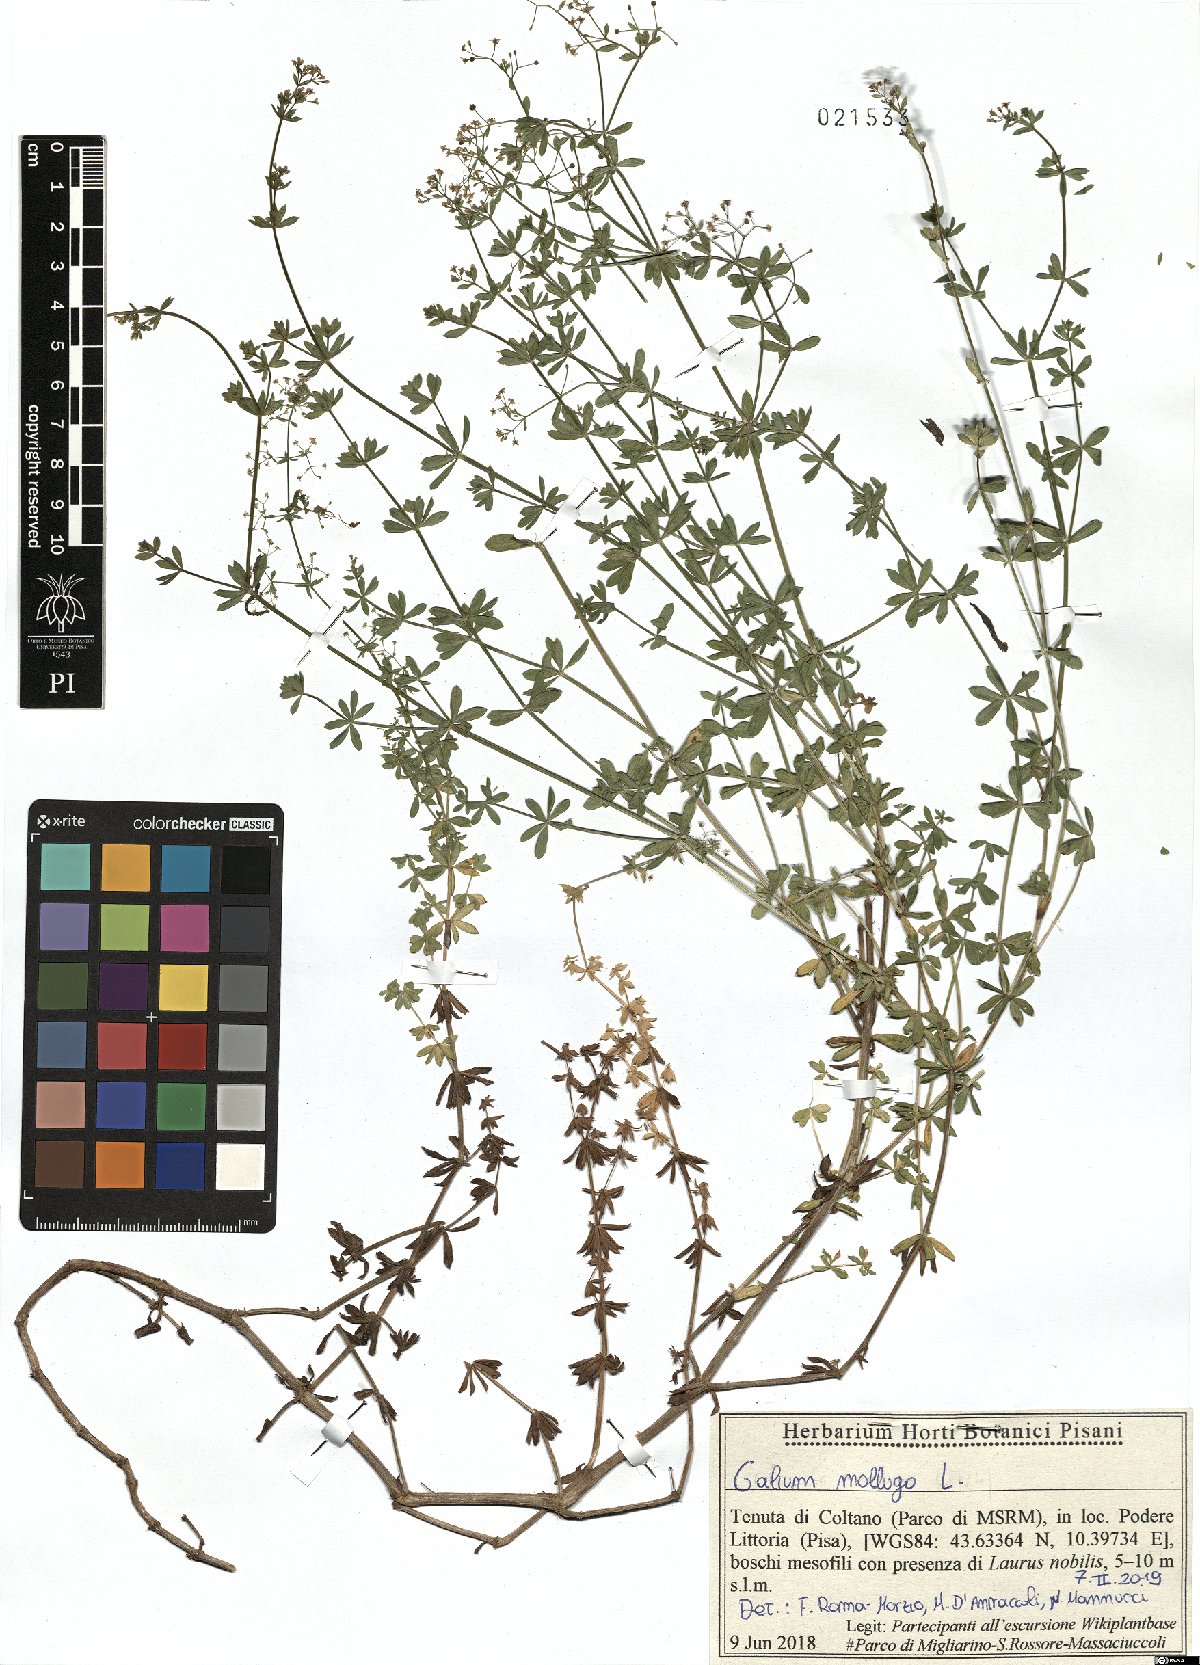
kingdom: Plantae
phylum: Tracheophyta
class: Magnoliopsida
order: Gentianales
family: Rubiaceae
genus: Galium
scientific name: Galium mollugo
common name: Hedge bedstraw
